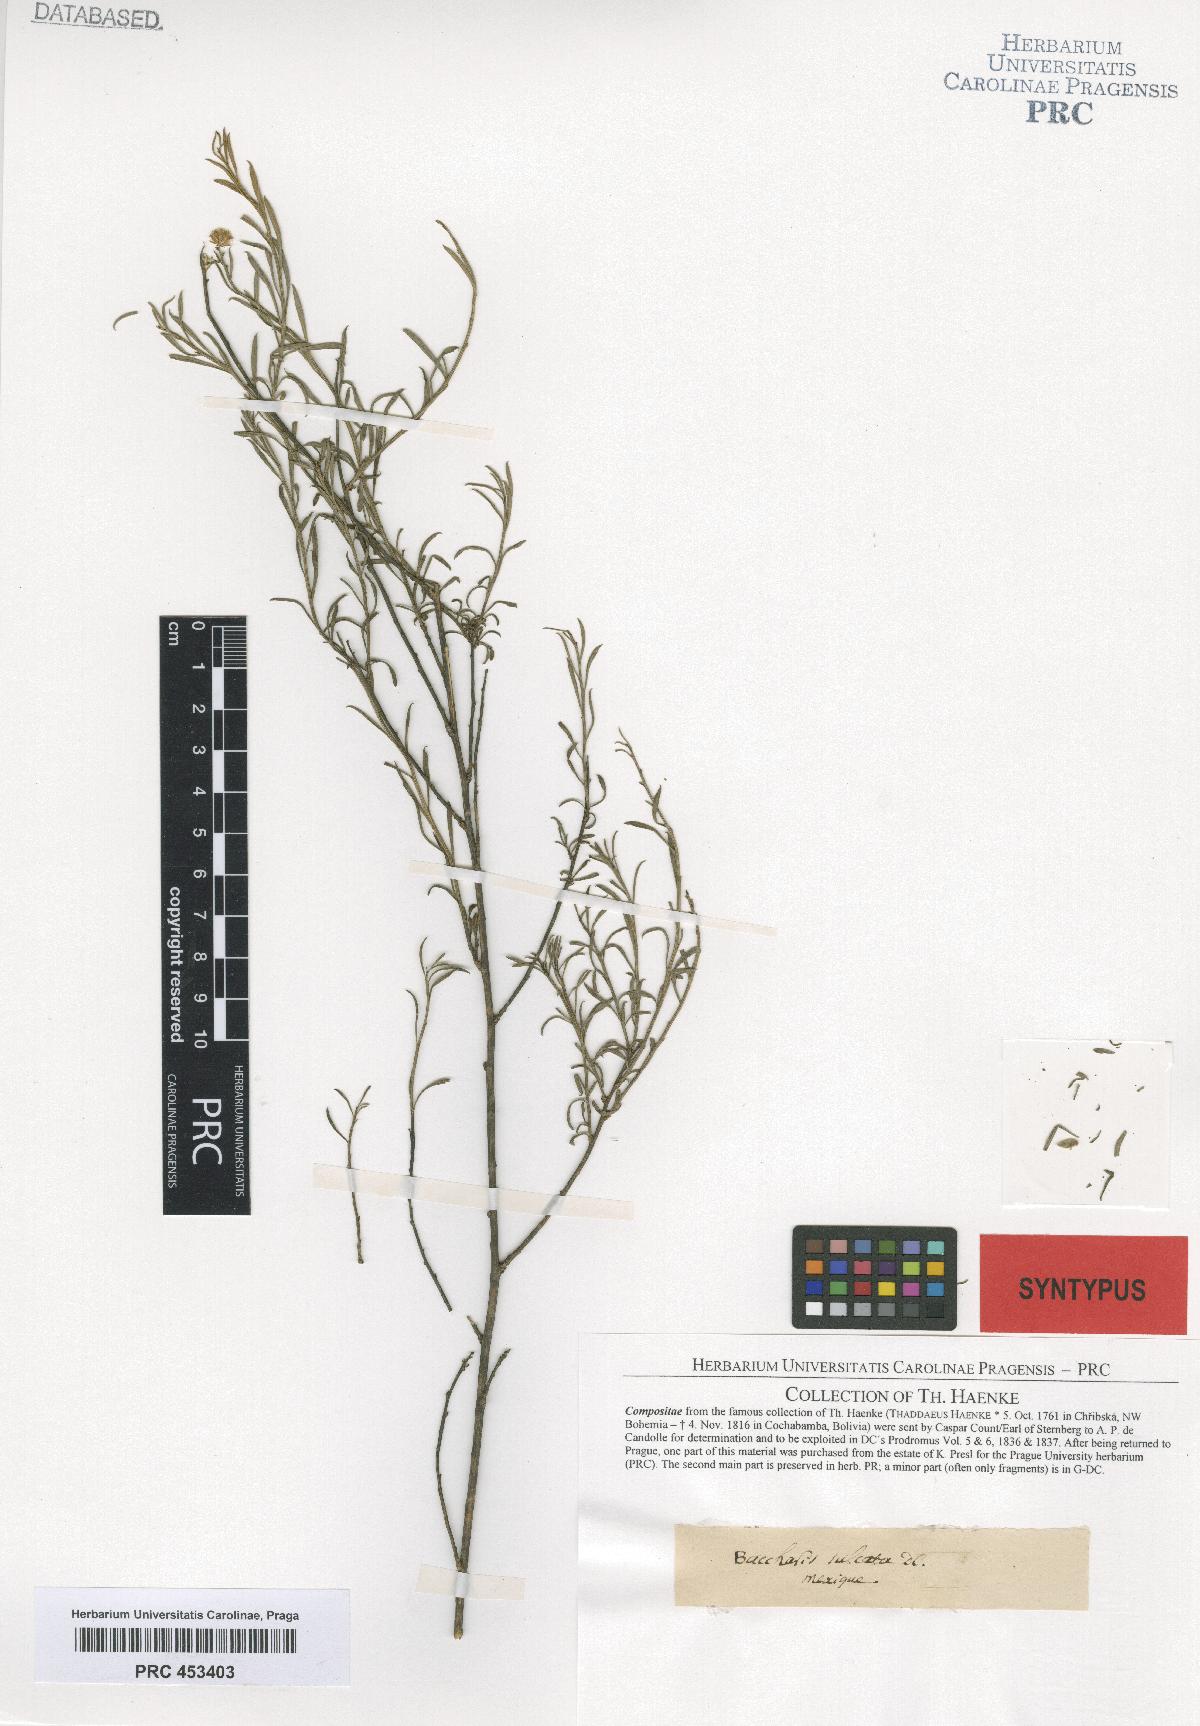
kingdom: Plantae
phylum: Tracheophyta
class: Magnoliopsida
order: Asterales
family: Asteraceae
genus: Baccharis
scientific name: Baccharis
